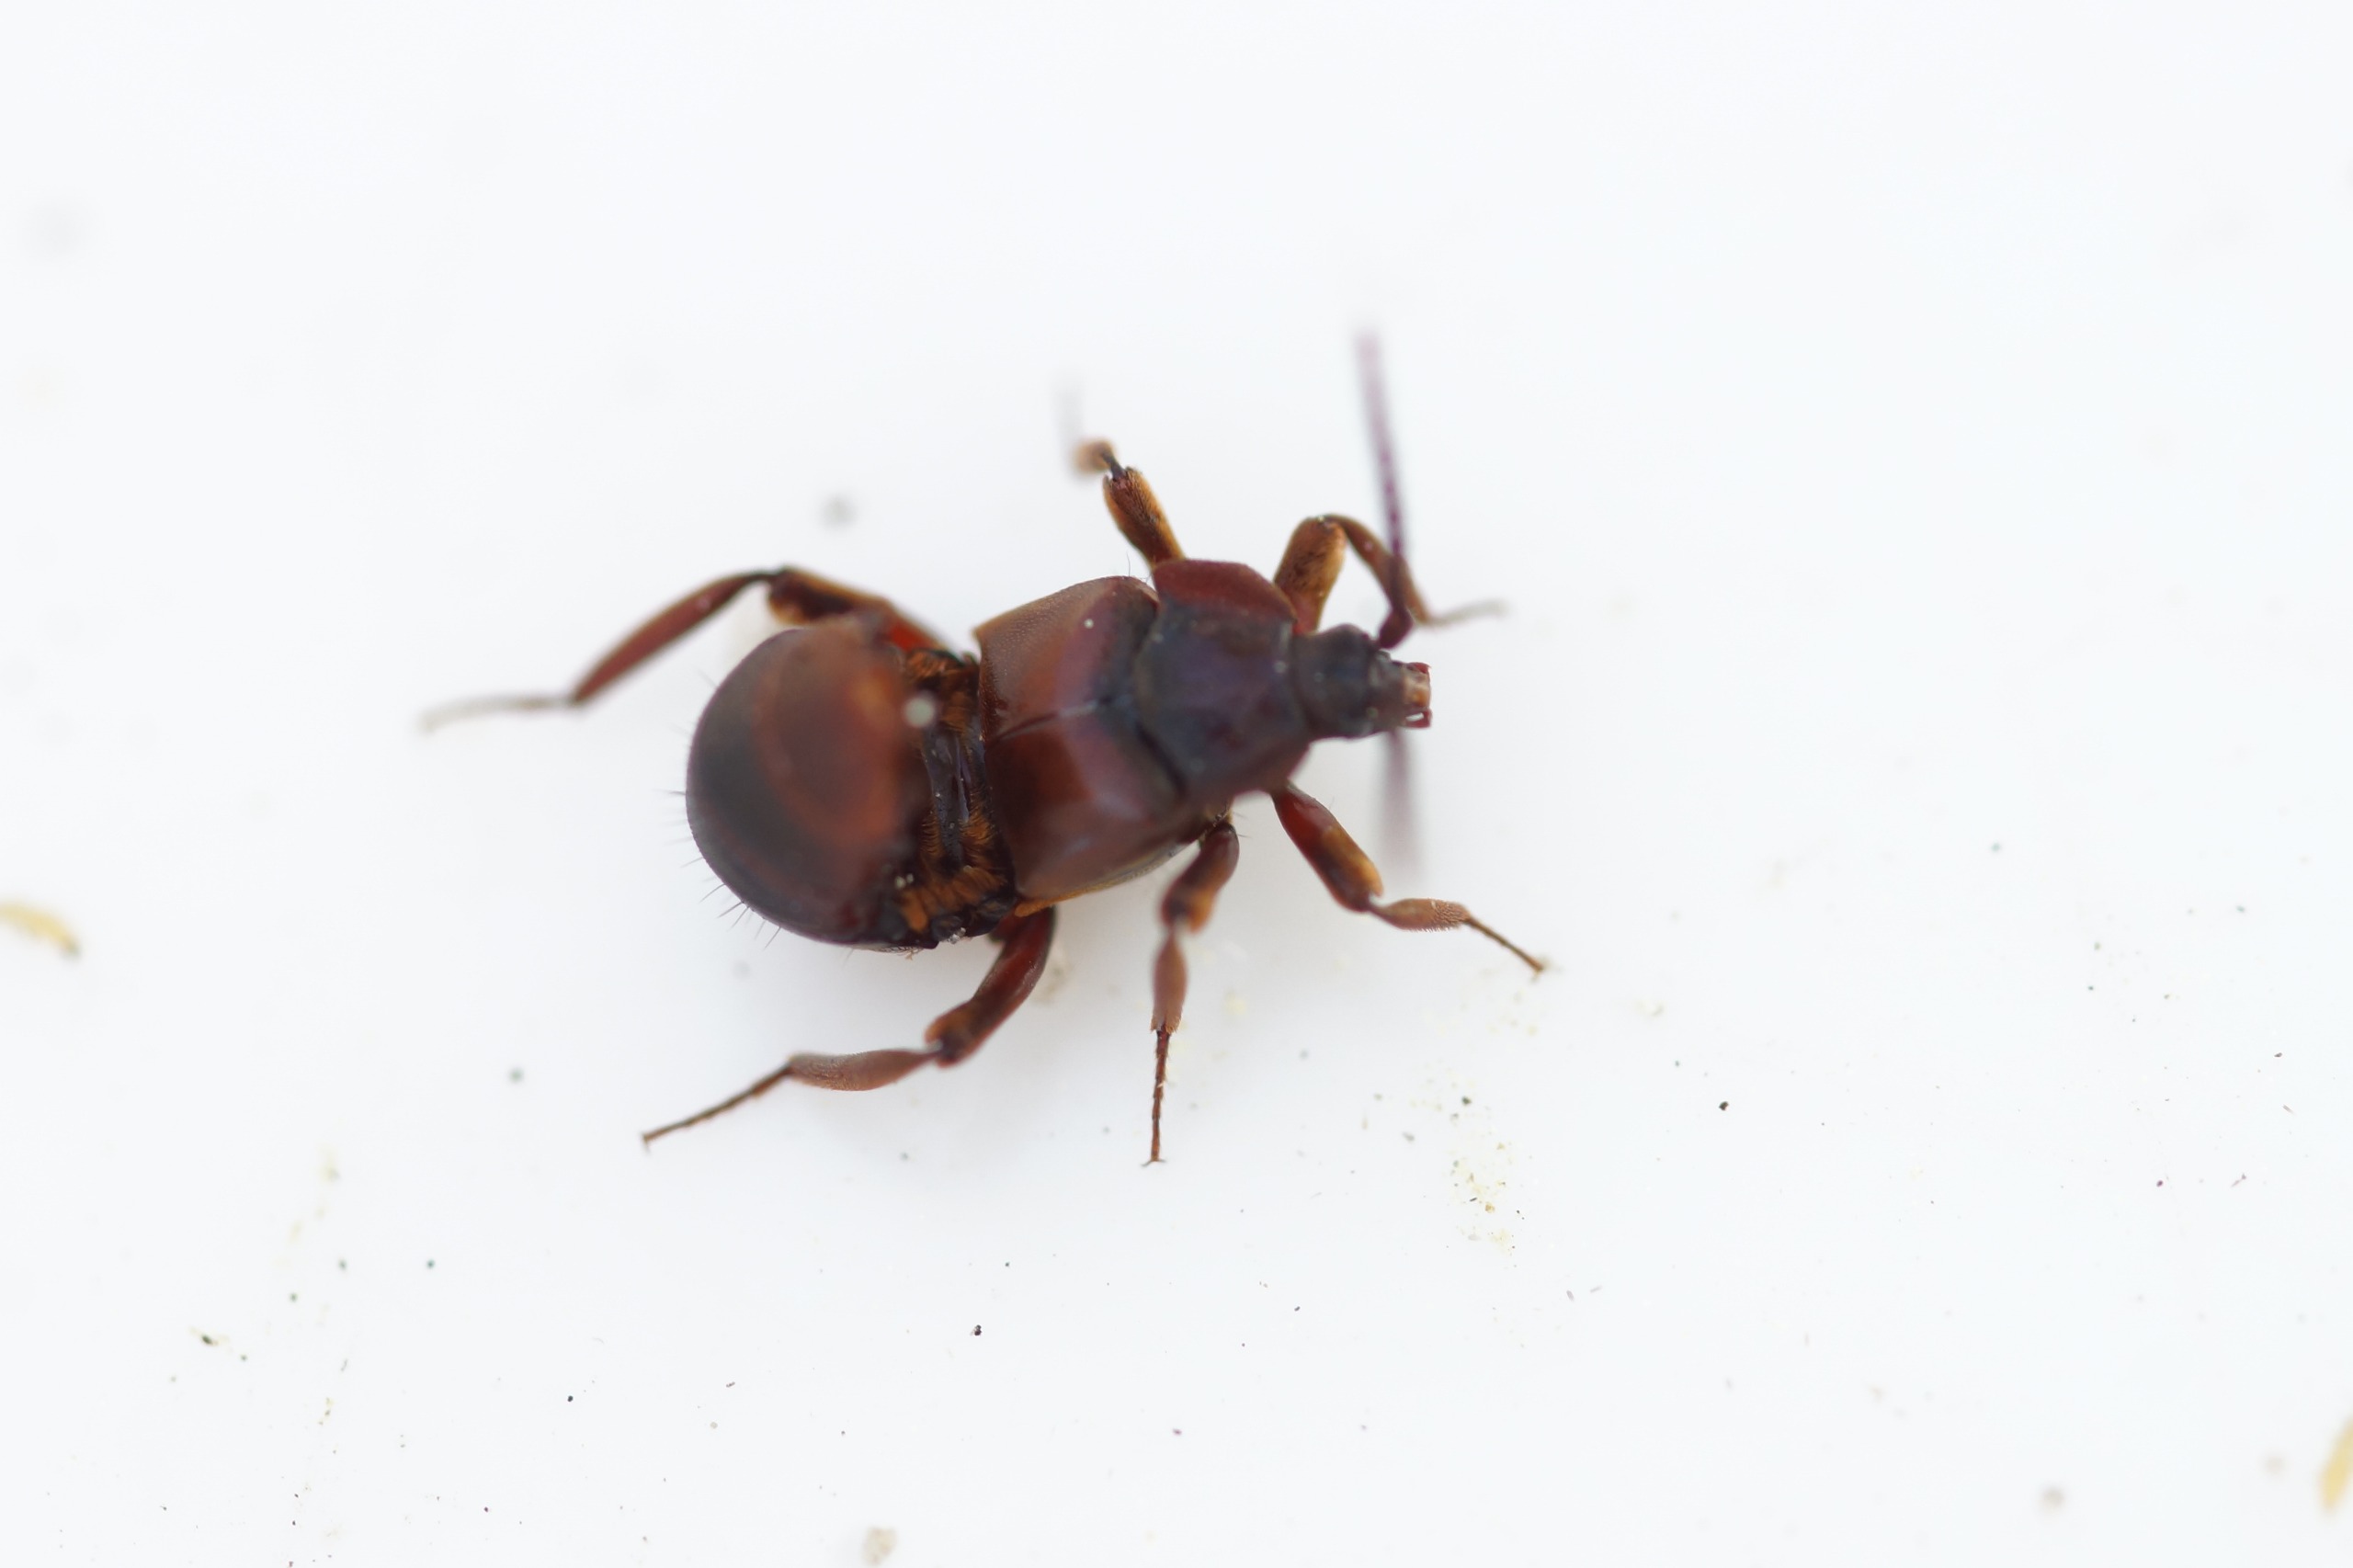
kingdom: Animalia
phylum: Arthropoda
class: Insecta
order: Coleoptera
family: Staphylinidae
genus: Lomechusoides
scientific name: Lomechusoides strumosus
